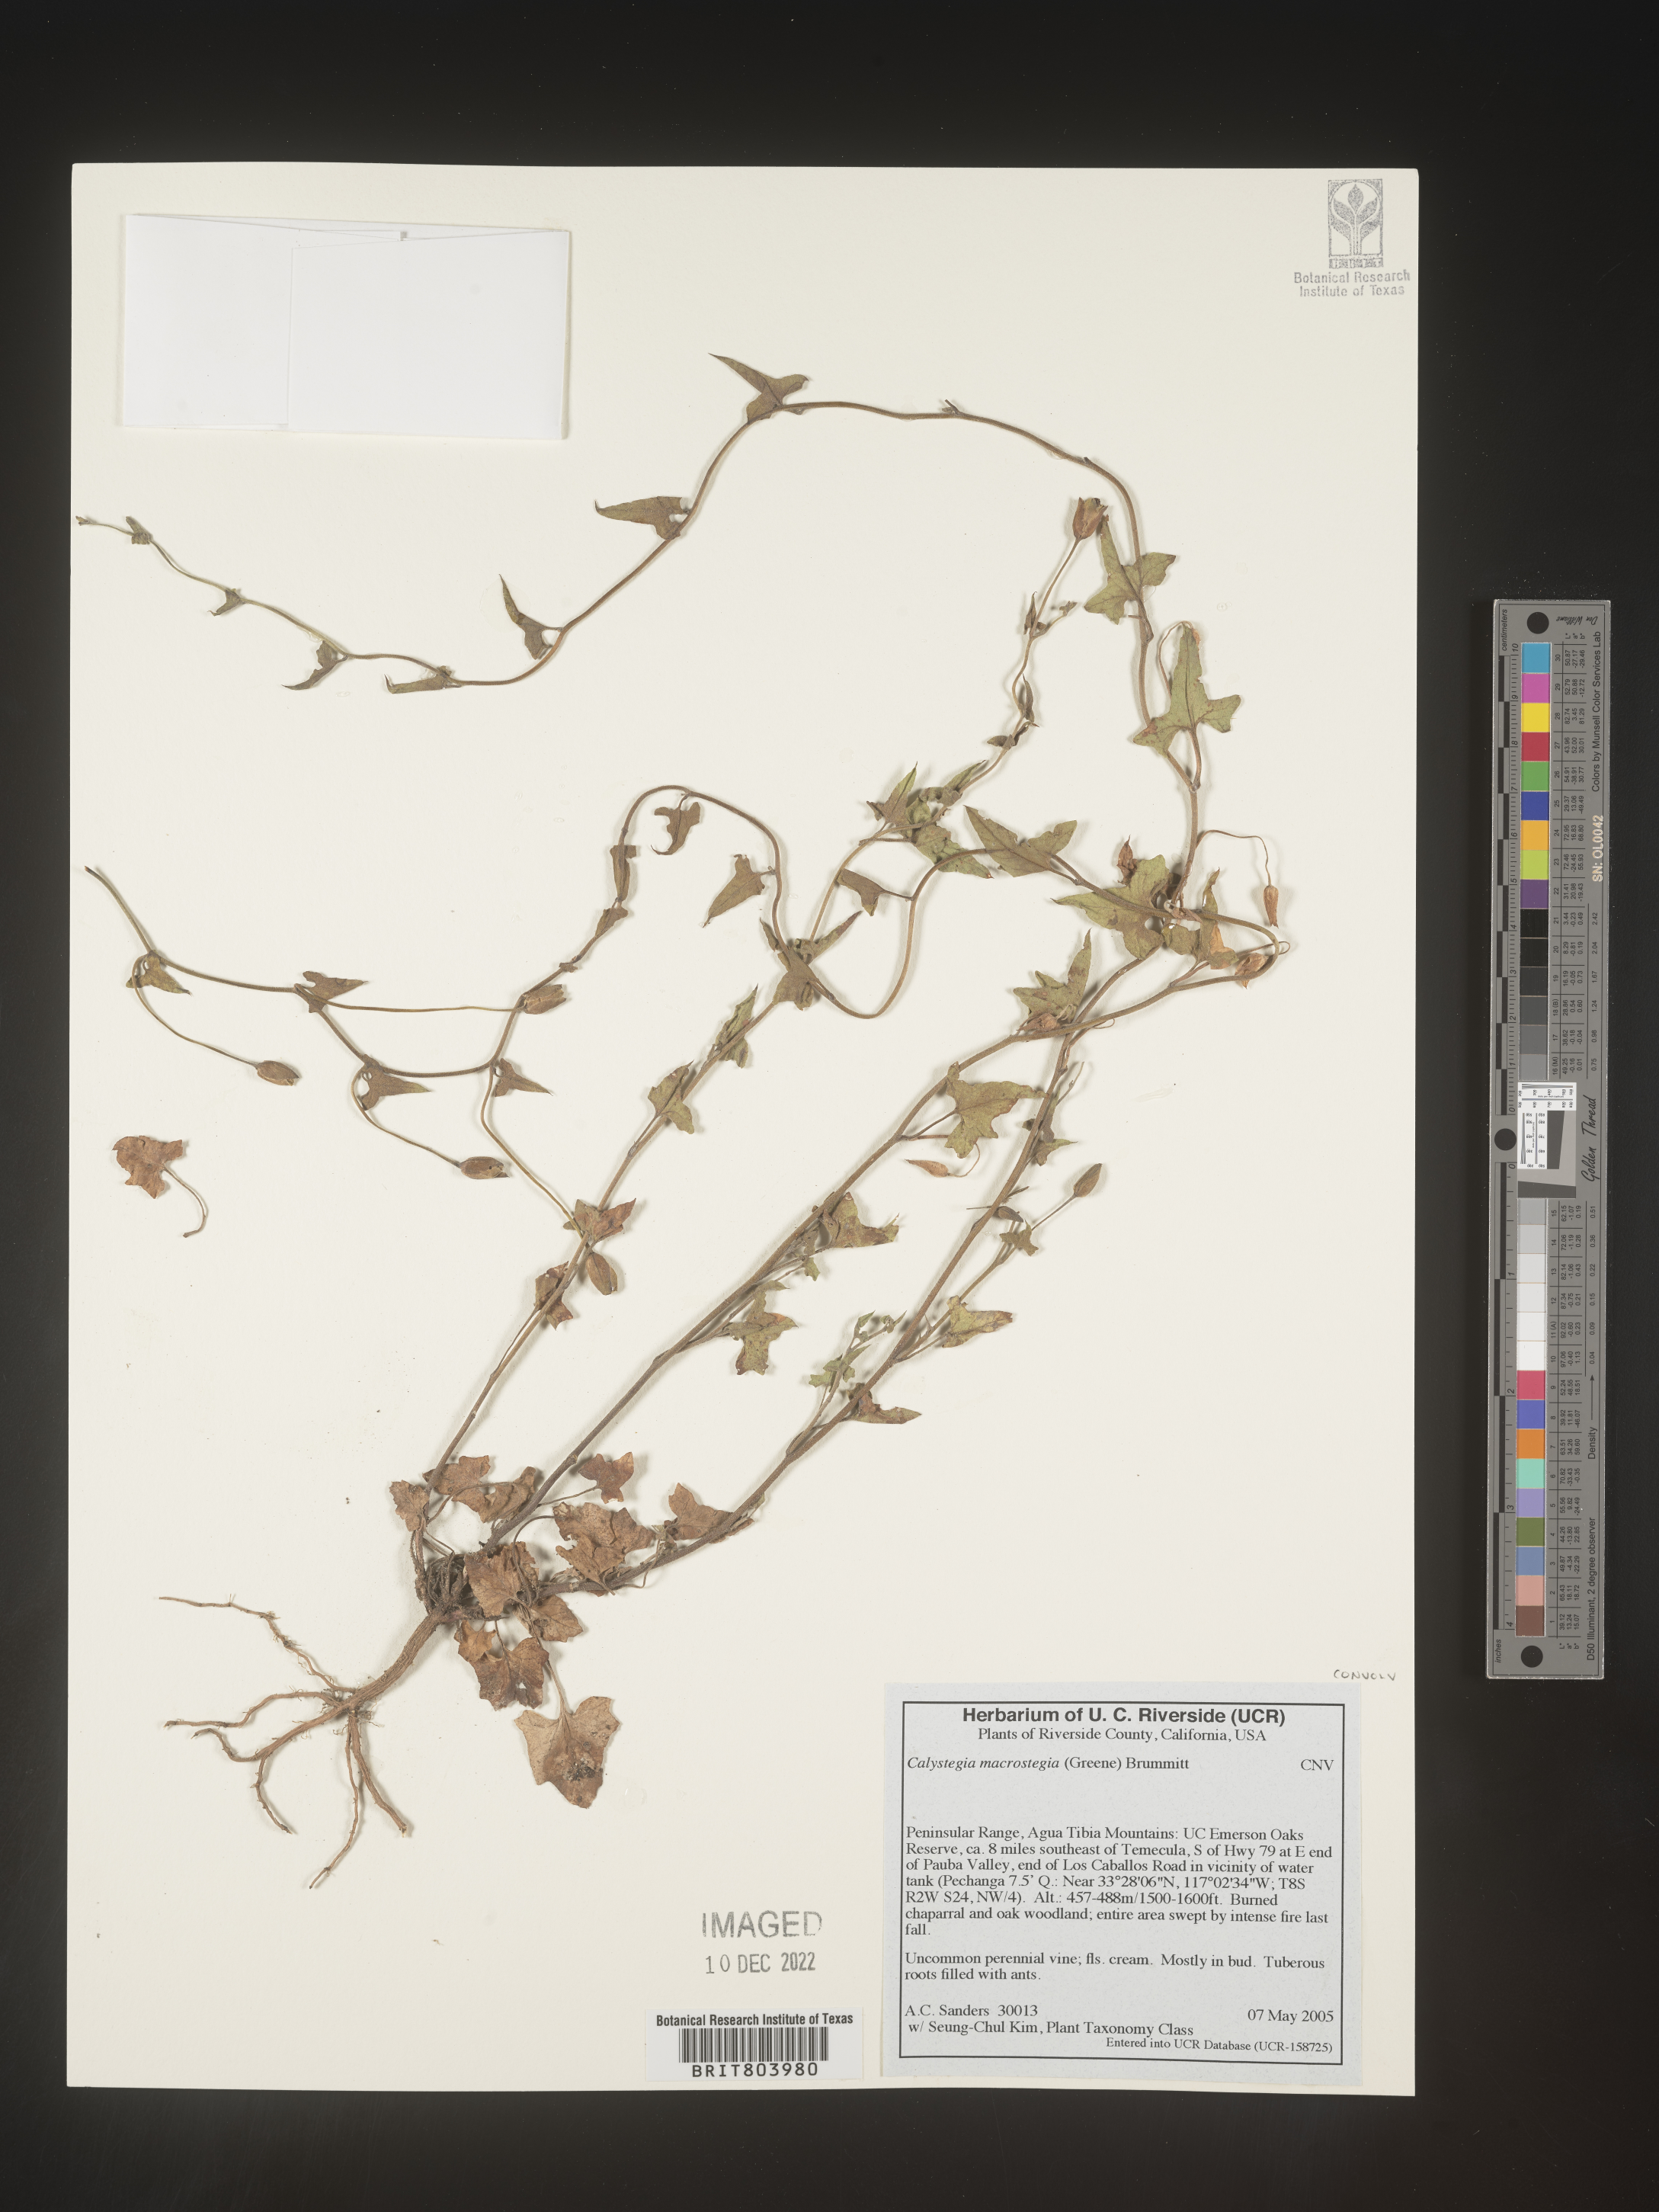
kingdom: Plantae
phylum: Tracheophyta
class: Magnoliopsida
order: Solanales
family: Convolvulaceae
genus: Calystegia
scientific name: Calystegia
